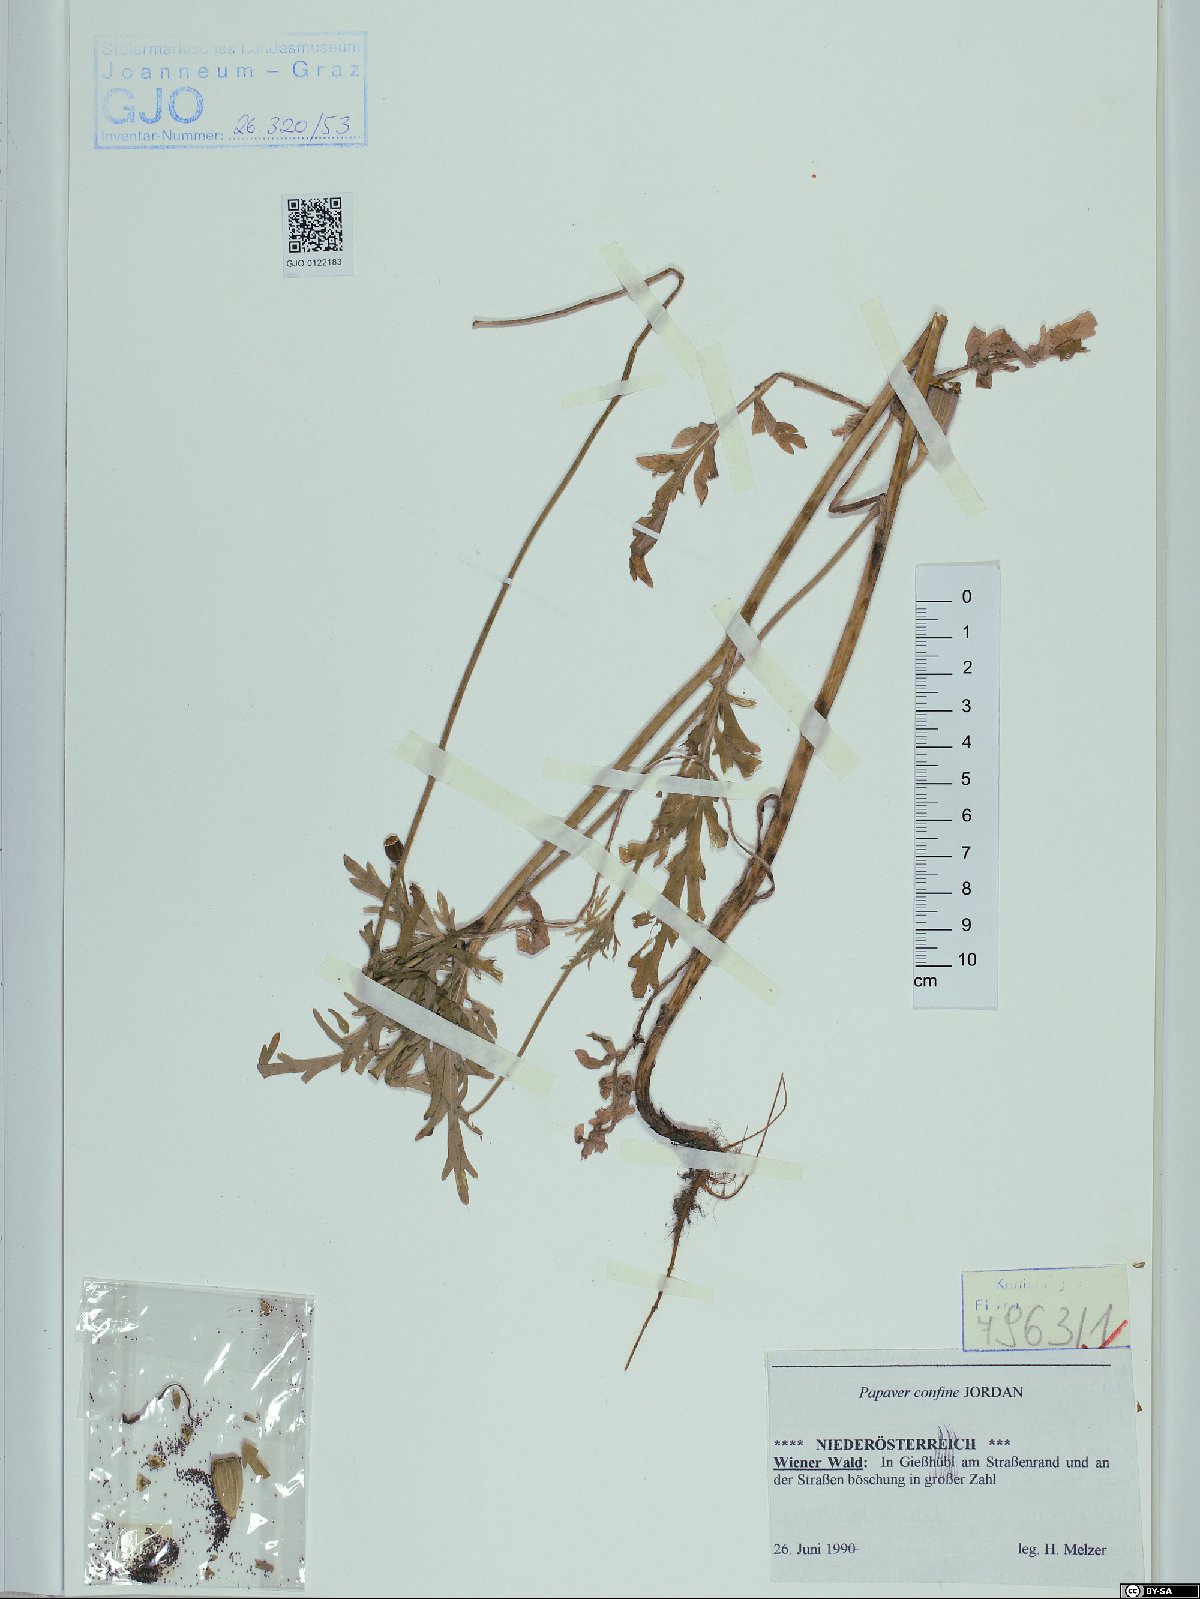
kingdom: Plantae
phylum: Tracheophyta
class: Magnoliopsida
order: Ranunculales
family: Papaveraceae
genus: Papaver
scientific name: Papaver confine
